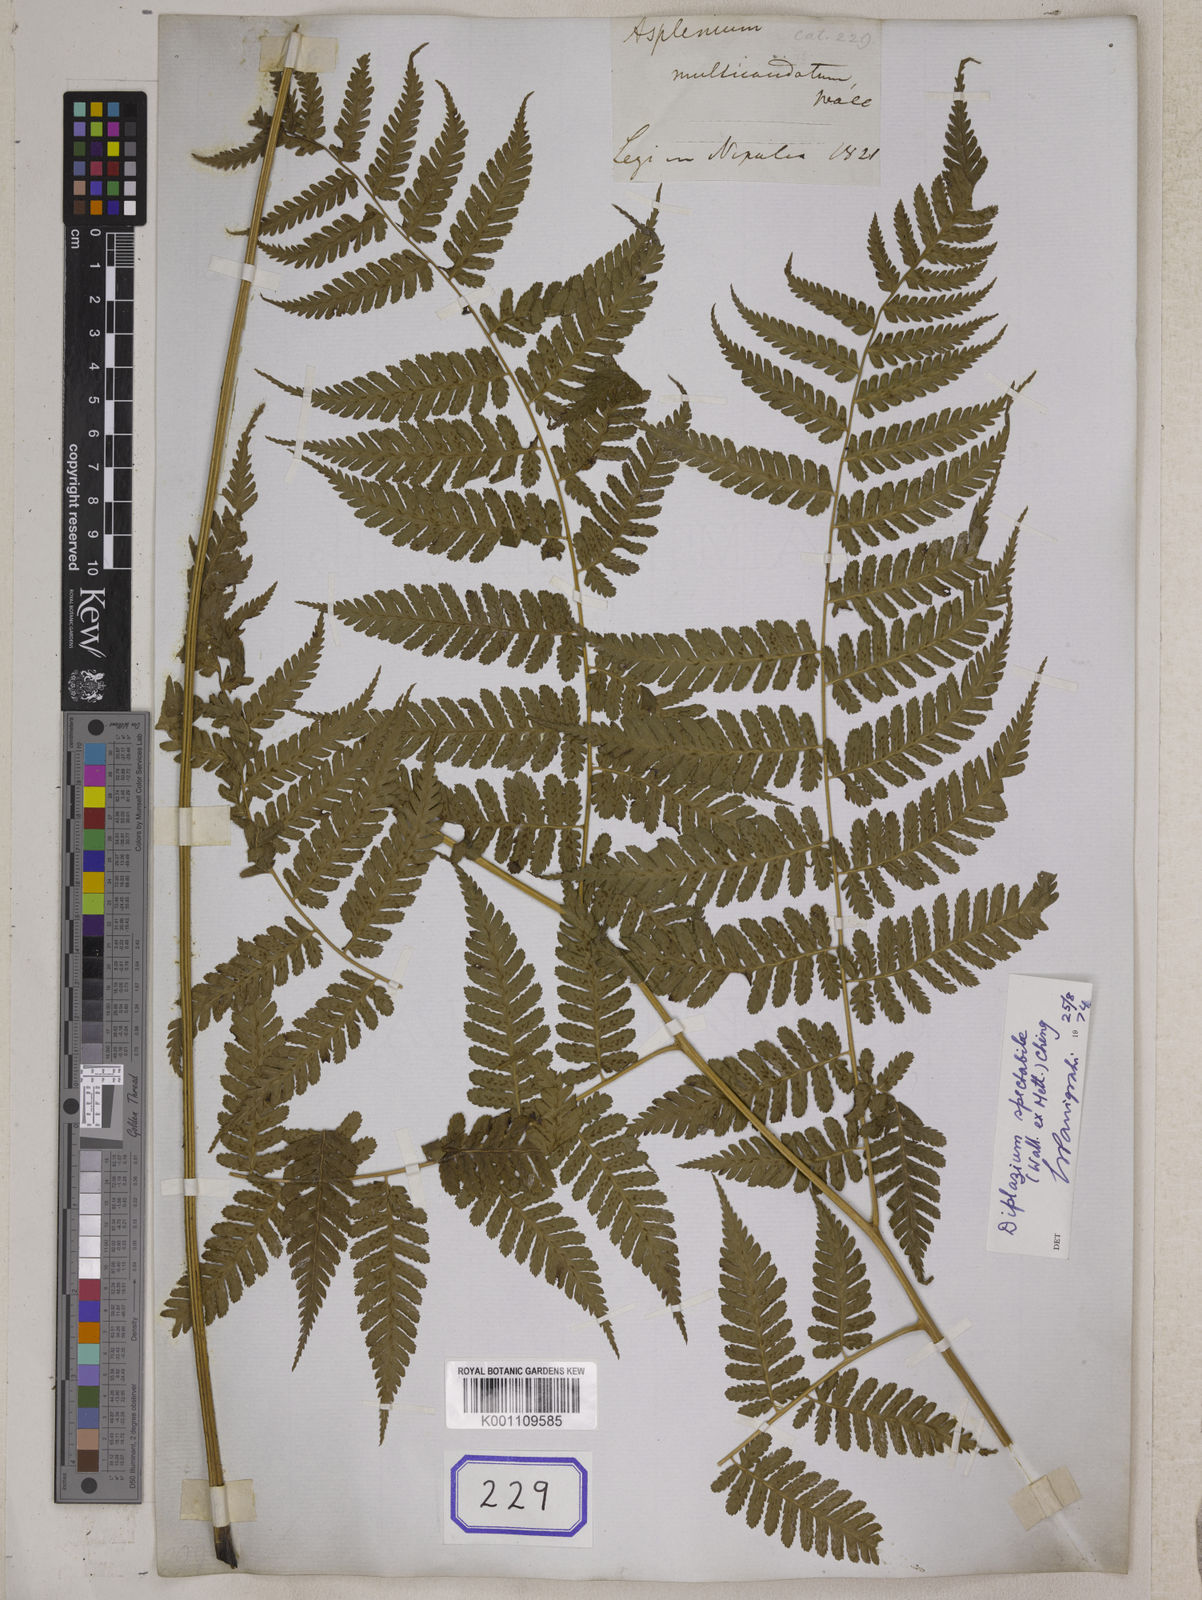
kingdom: Plantae
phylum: Tracheophyta
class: Polypodiopsida
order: Polypodiales
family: Athyriaceae
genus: Diplazium
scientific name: Diplazium pseudosetigerum
